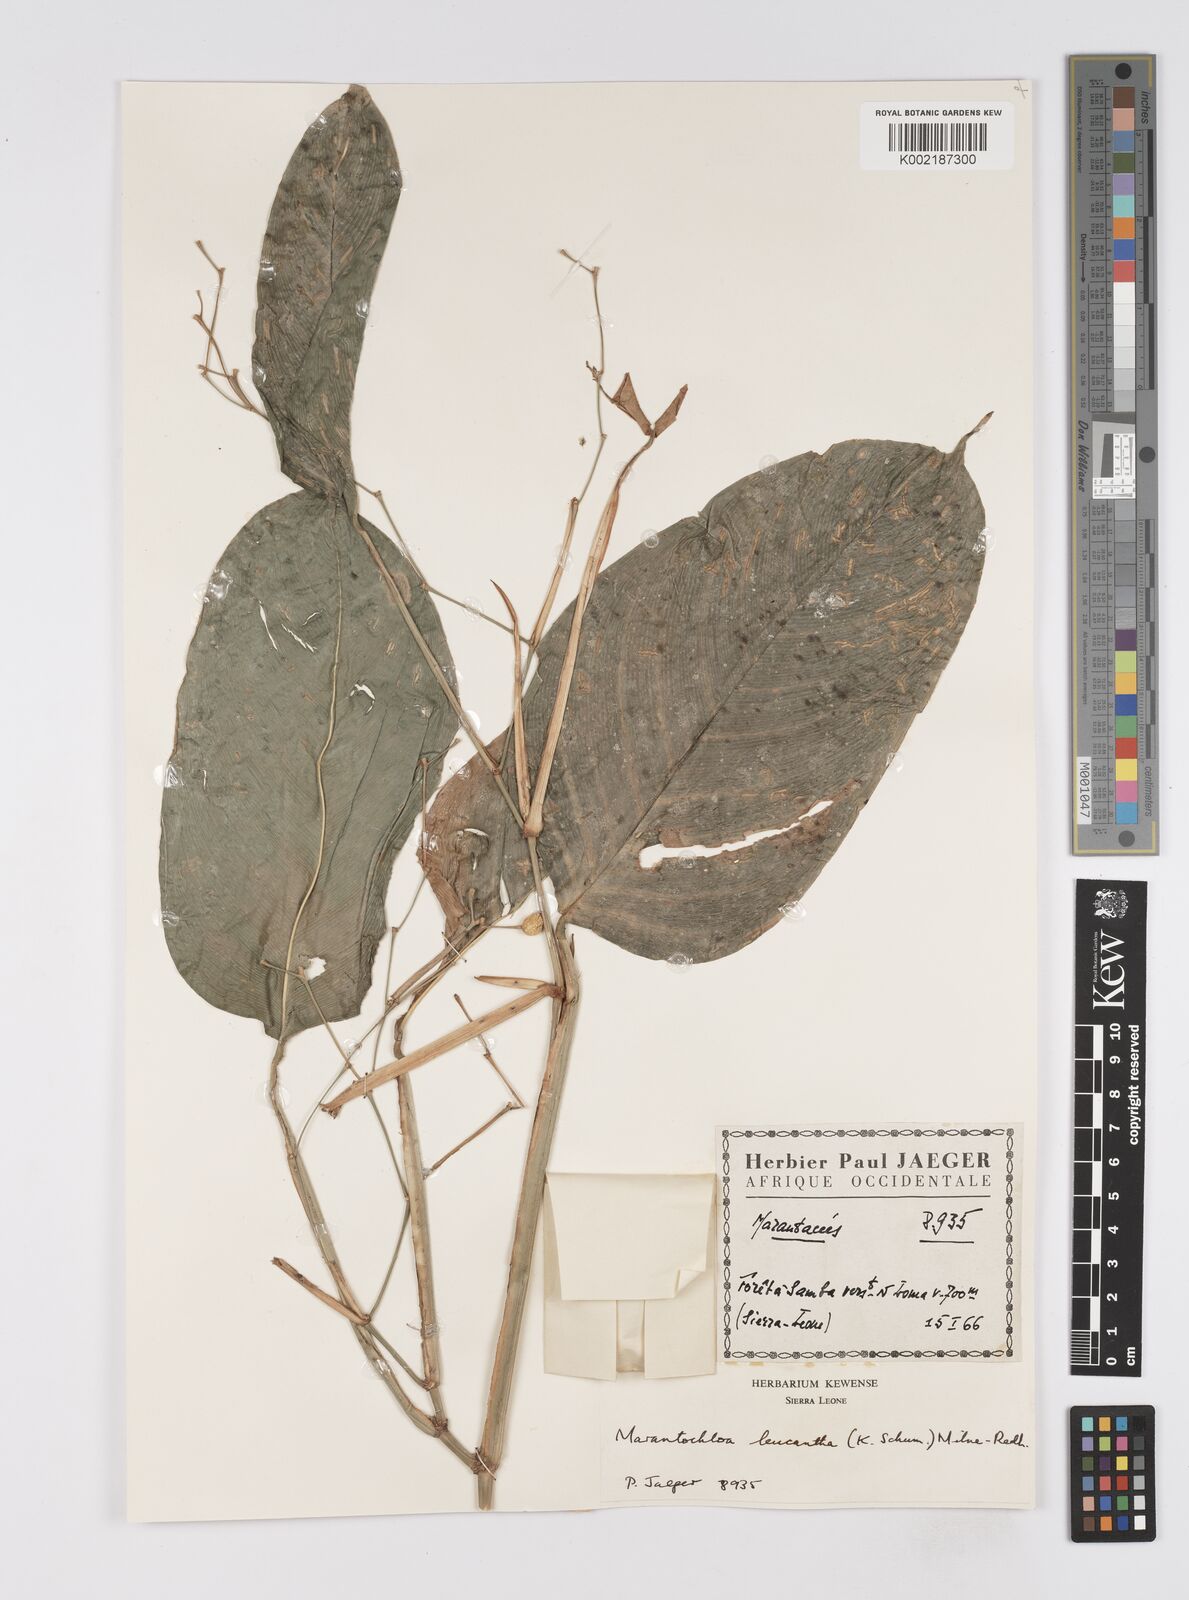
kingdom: Plantae
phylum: Tracheophyta
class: Liliopsida
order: Zingiberales
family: Marantaceae
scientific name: Marantaceae
